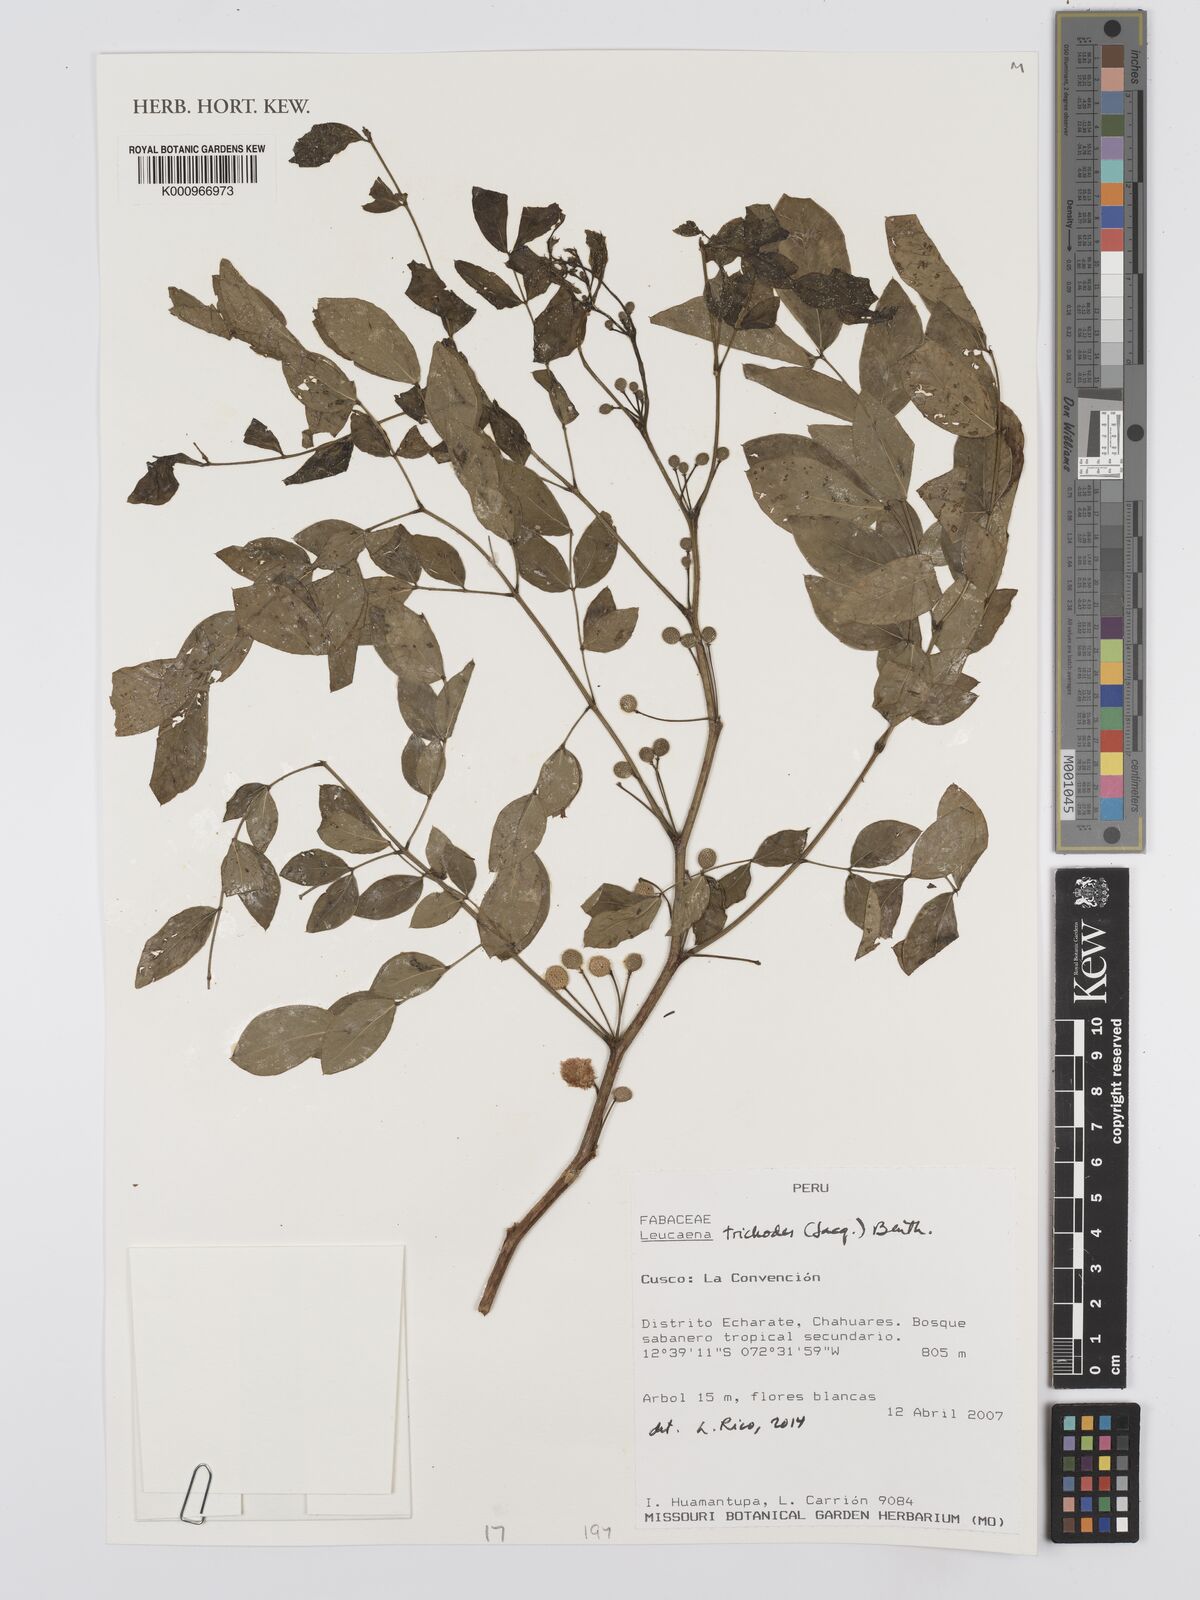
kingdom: Plantae
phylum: Tracheophyta
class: Magnoliopsida
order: Fabales
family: Fabaceae
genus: Leucaena
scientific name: Leucaena trichodes
